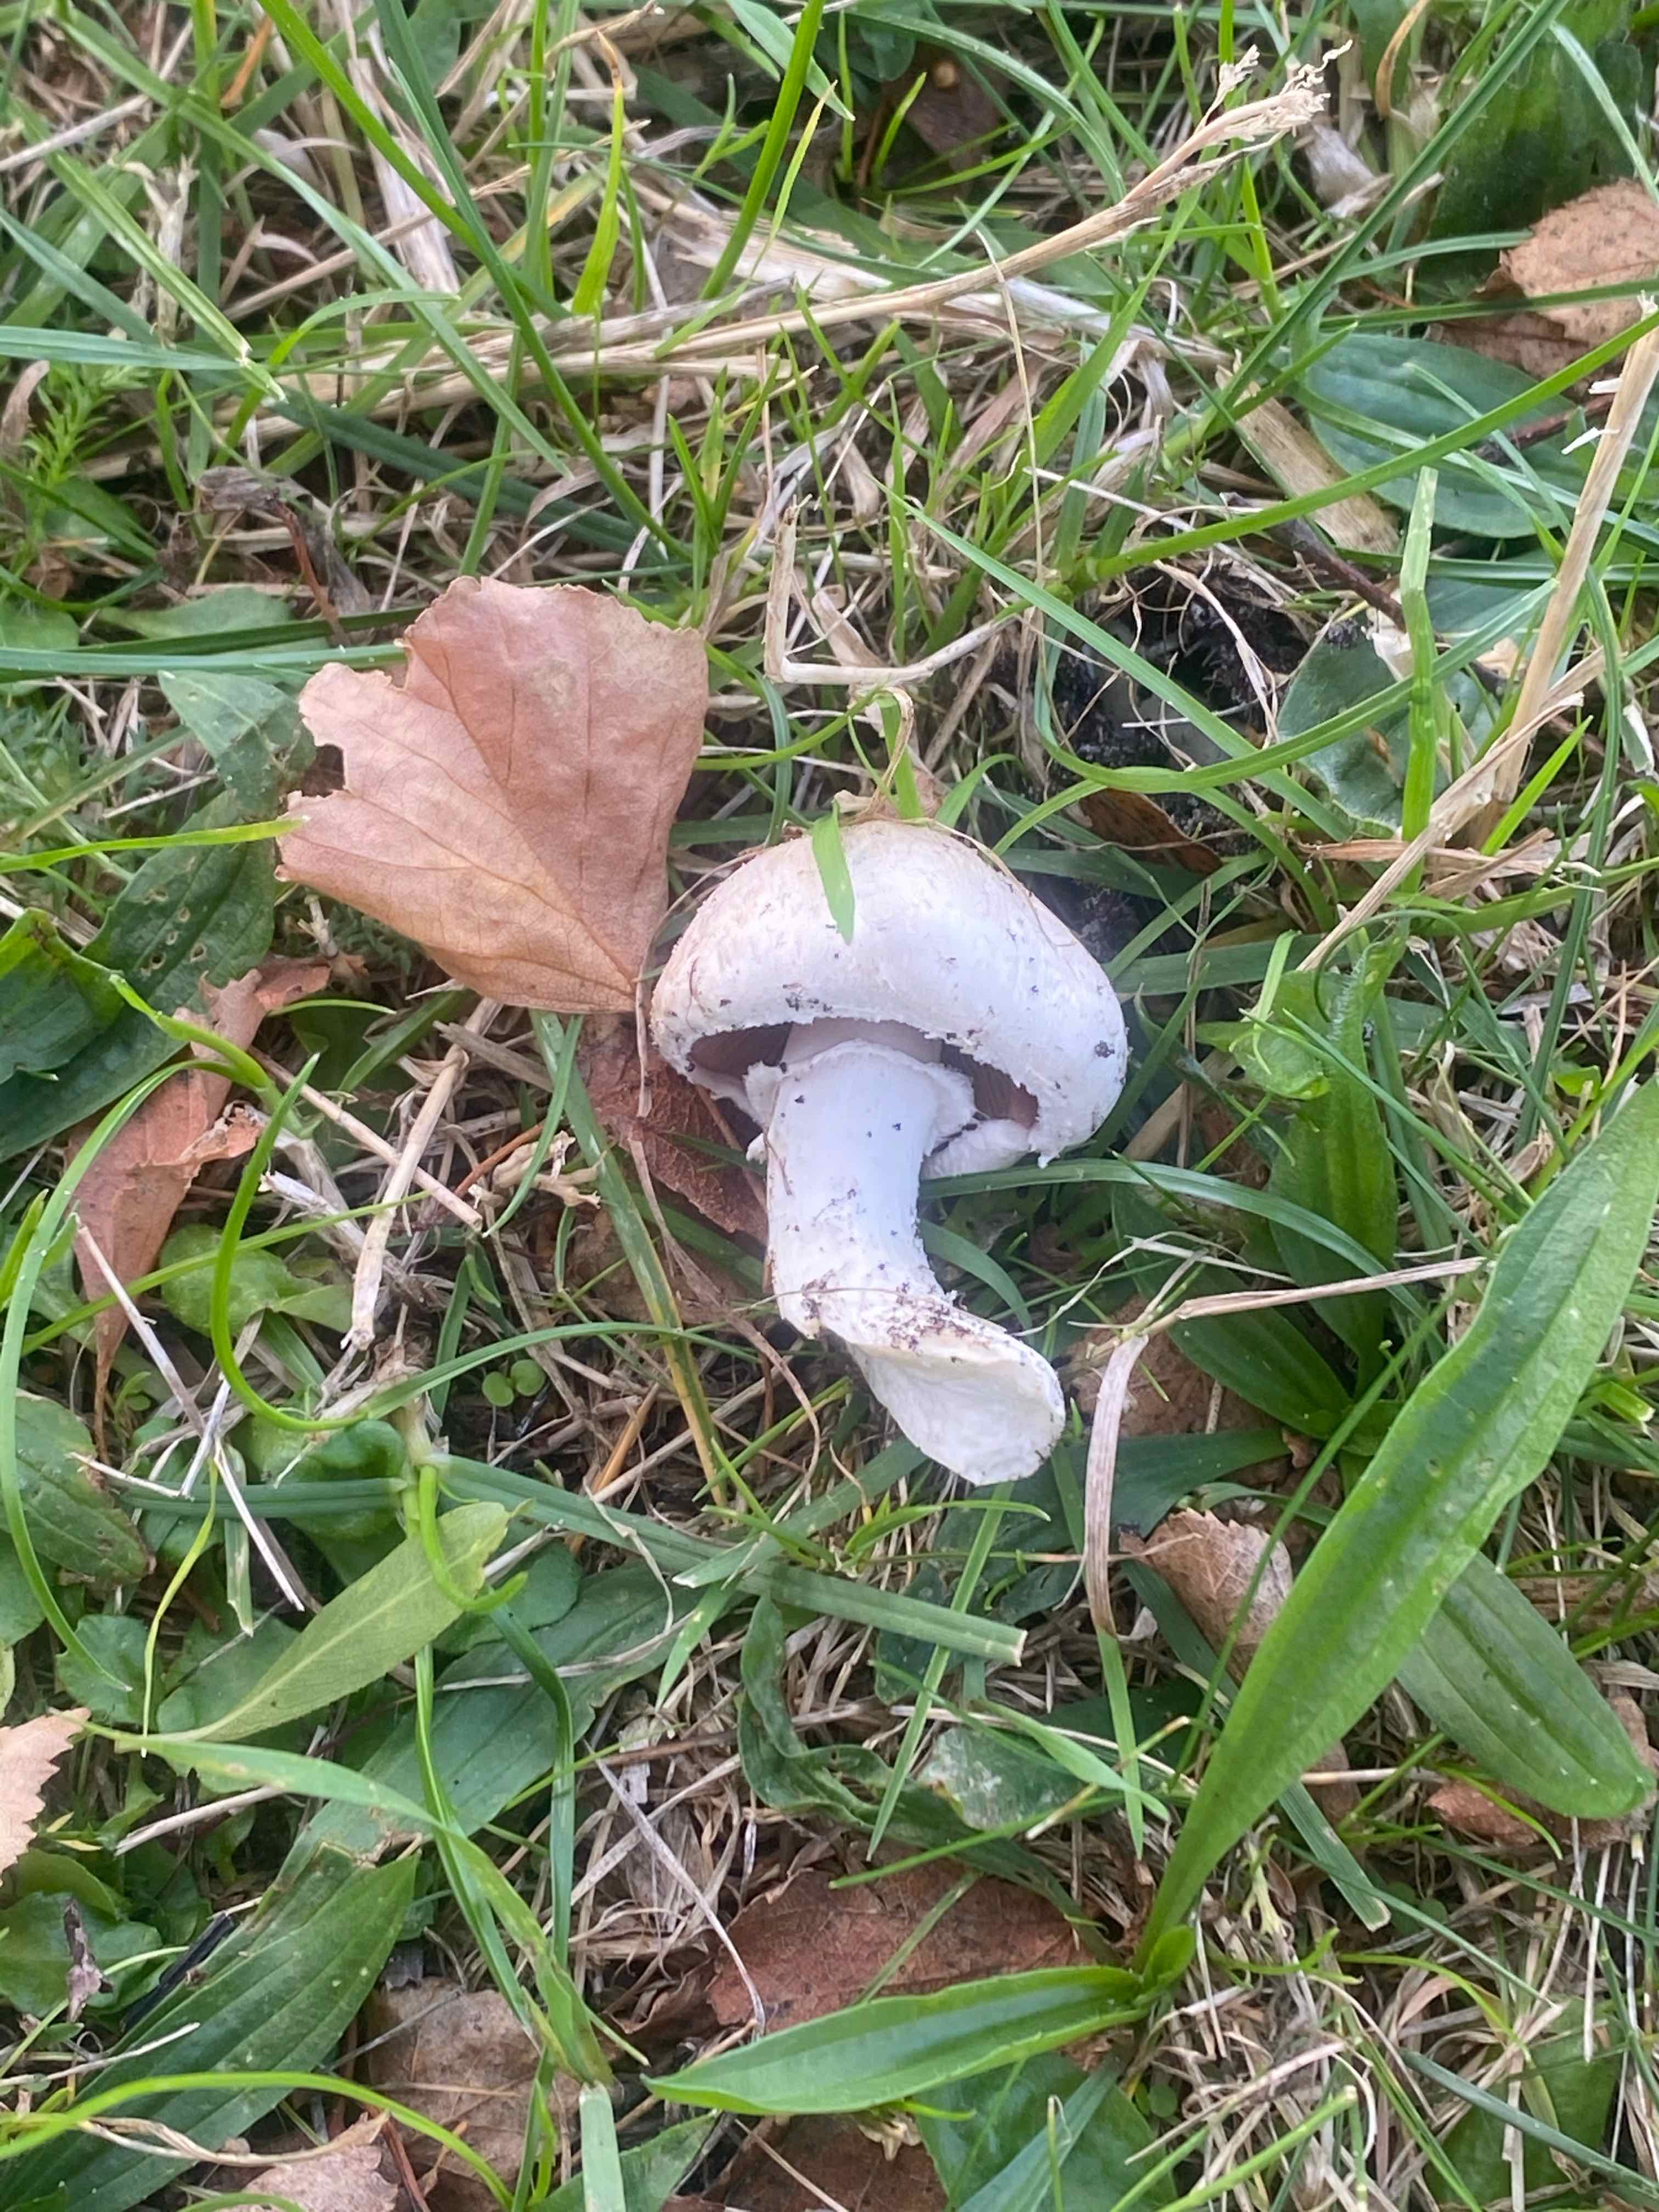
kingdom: Fungi
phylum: Basidiomycota
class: Agaricomycetes
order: Agaricales
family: Agaricaceae
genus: Agaricus
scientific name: Agaricus campestris
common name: mark-champignon
